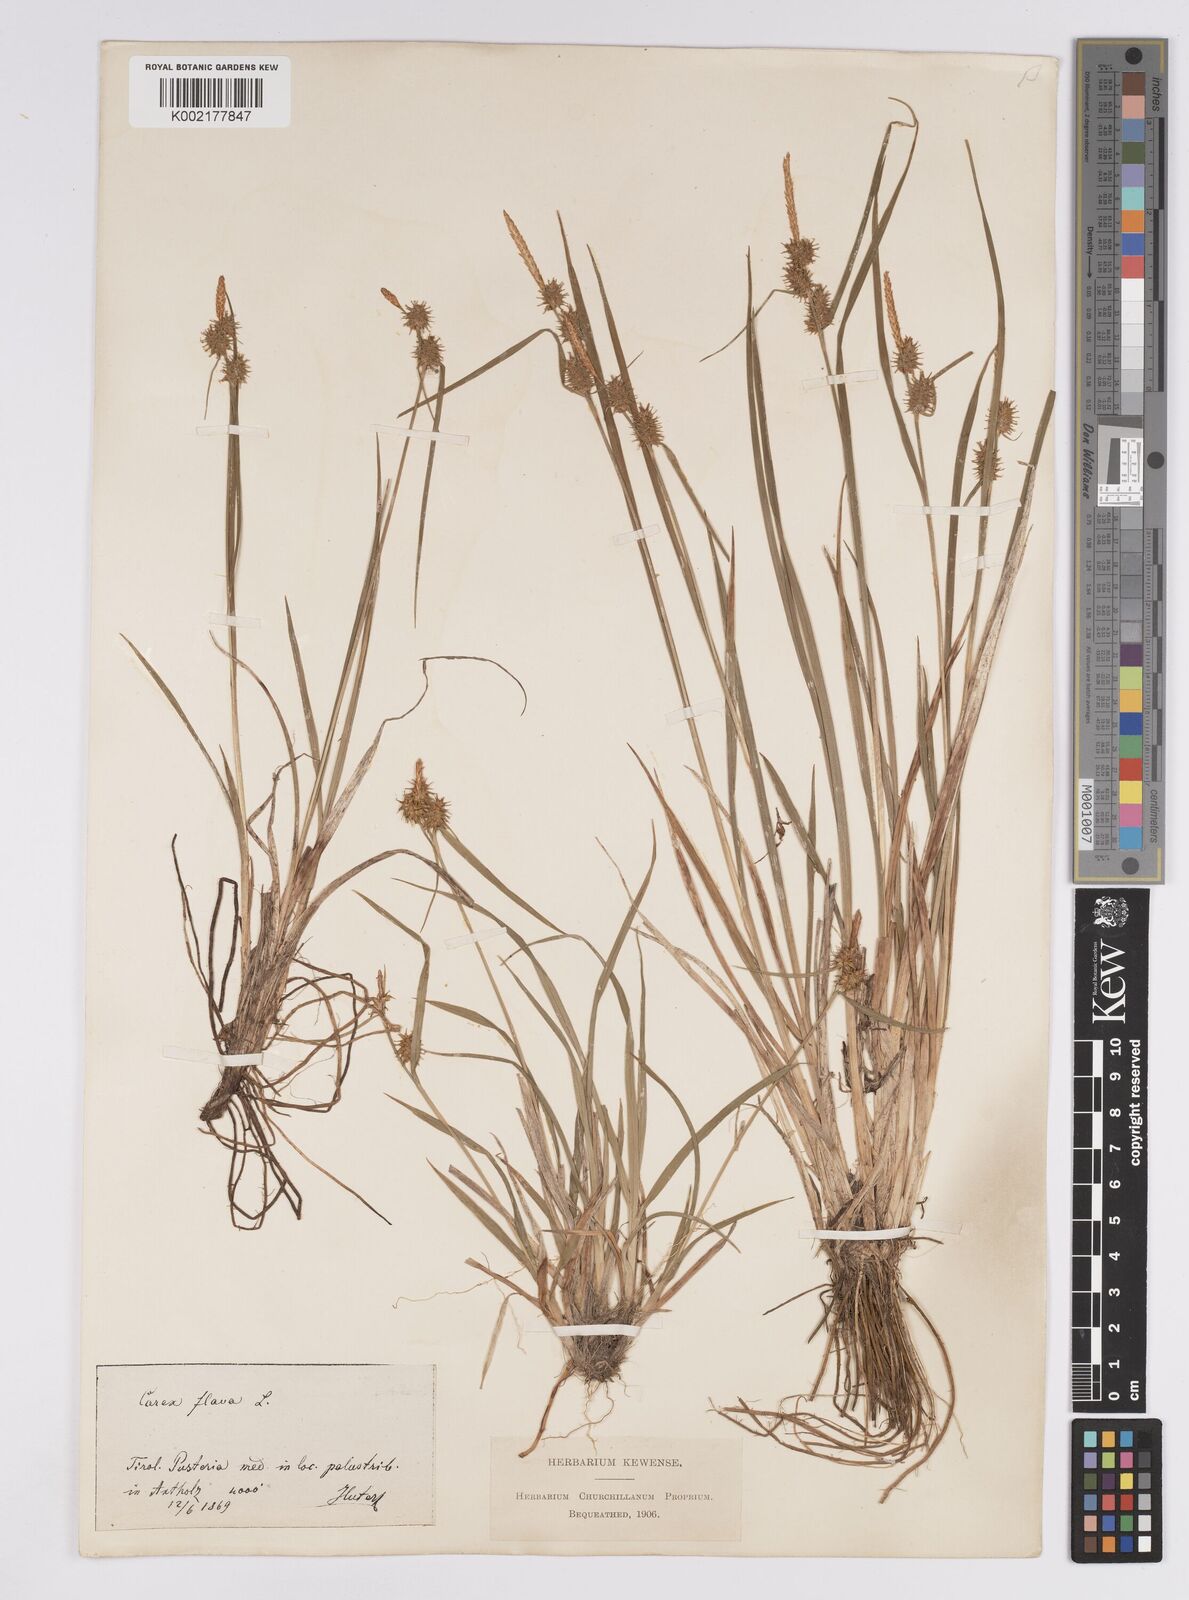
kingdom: Plantae
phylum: Tracheophyta
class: Liliopsida
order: Poales
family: Cyperaceae
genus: Carex
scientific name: Carex flava
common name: Large yellow-sedge
